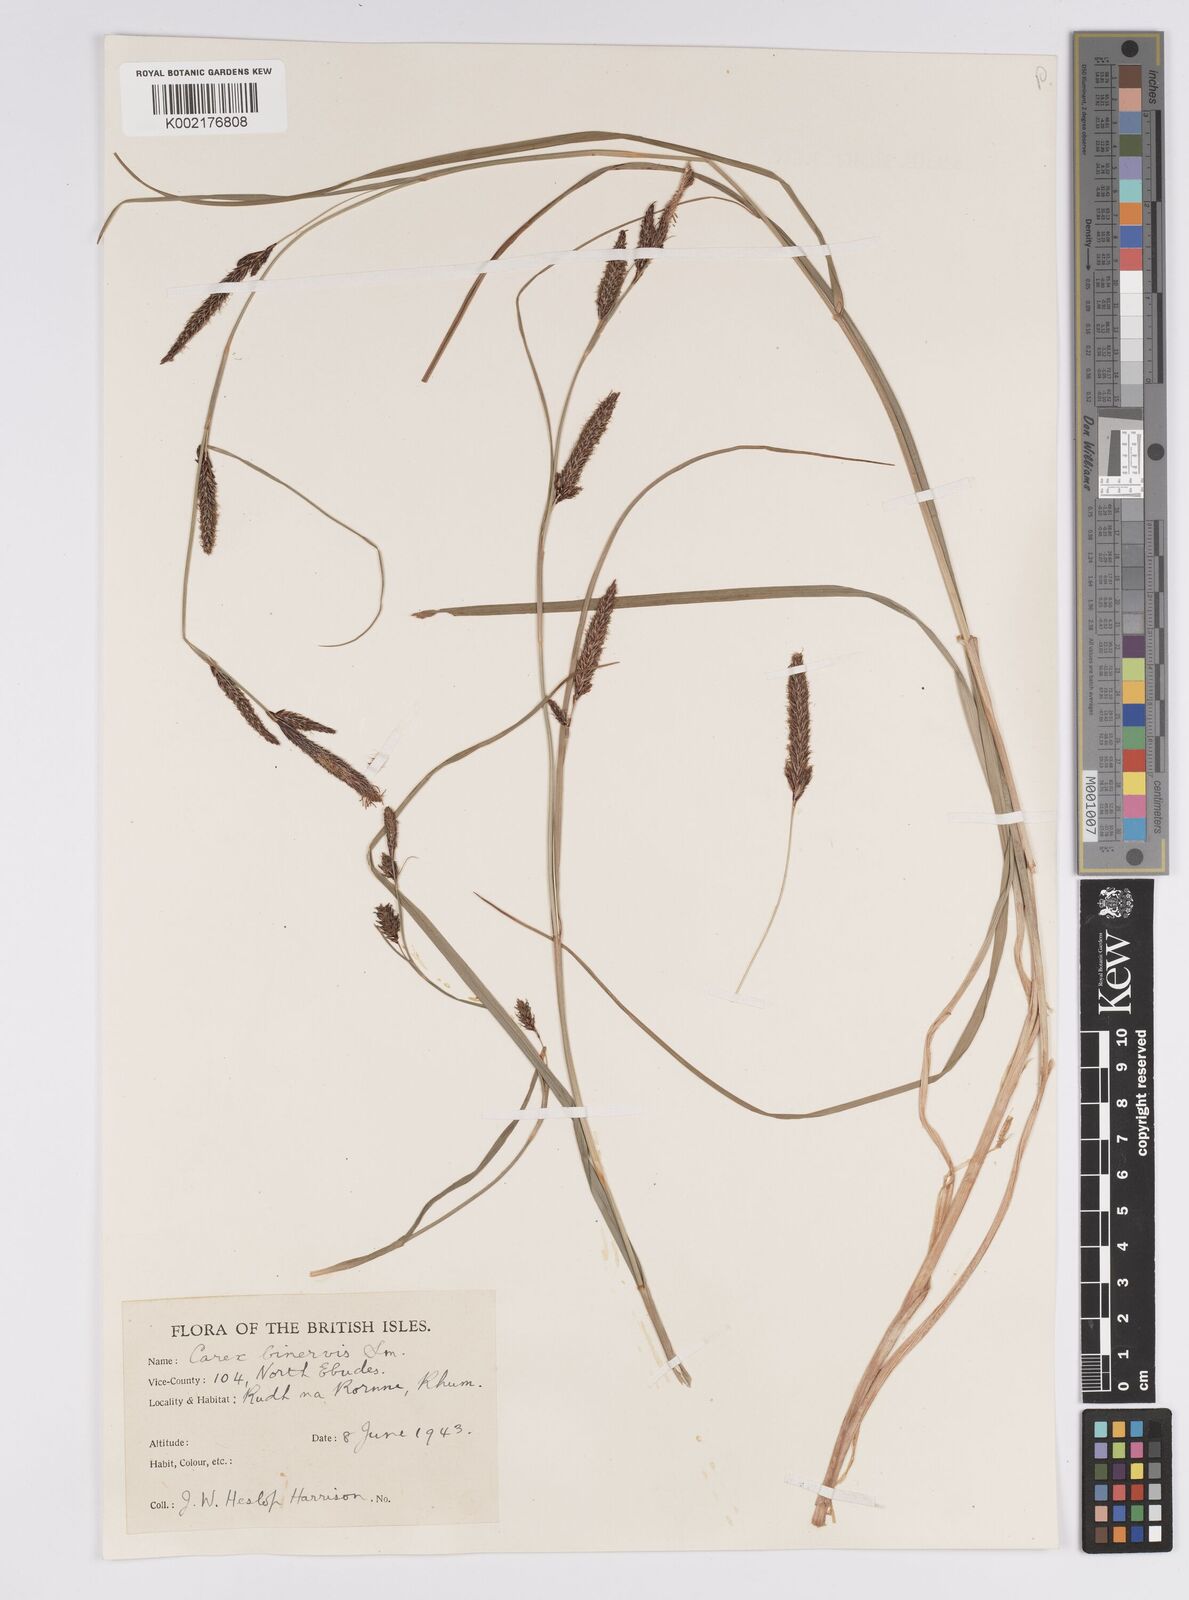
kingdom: Plantae
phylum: Tracheophyta
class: Liliopsida
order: Poales
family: Cyperaceae
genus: Carex
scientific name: Carex binervis
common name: Green-ribbed sedge
